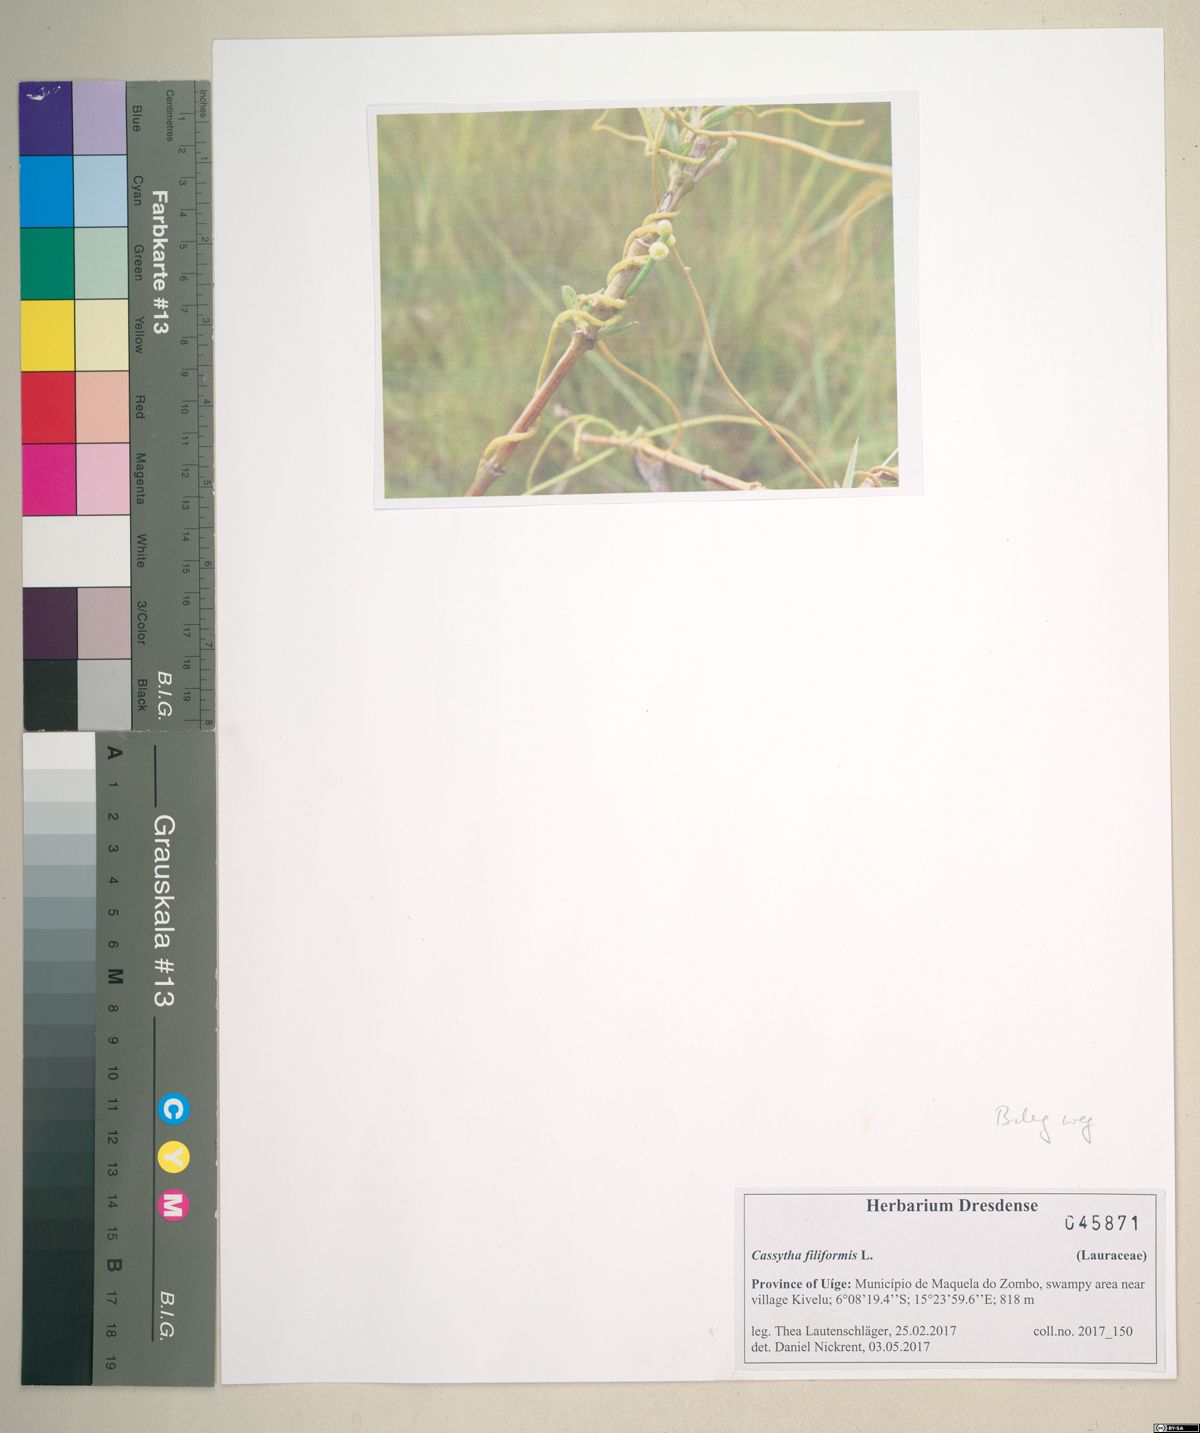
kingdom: Plantae
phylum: Tracheophyta
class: Magnoliopsida
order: Laurales
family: Lauraceae
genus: Cassytha
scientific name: Cassytha filiformis
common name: Dodder-laurel
